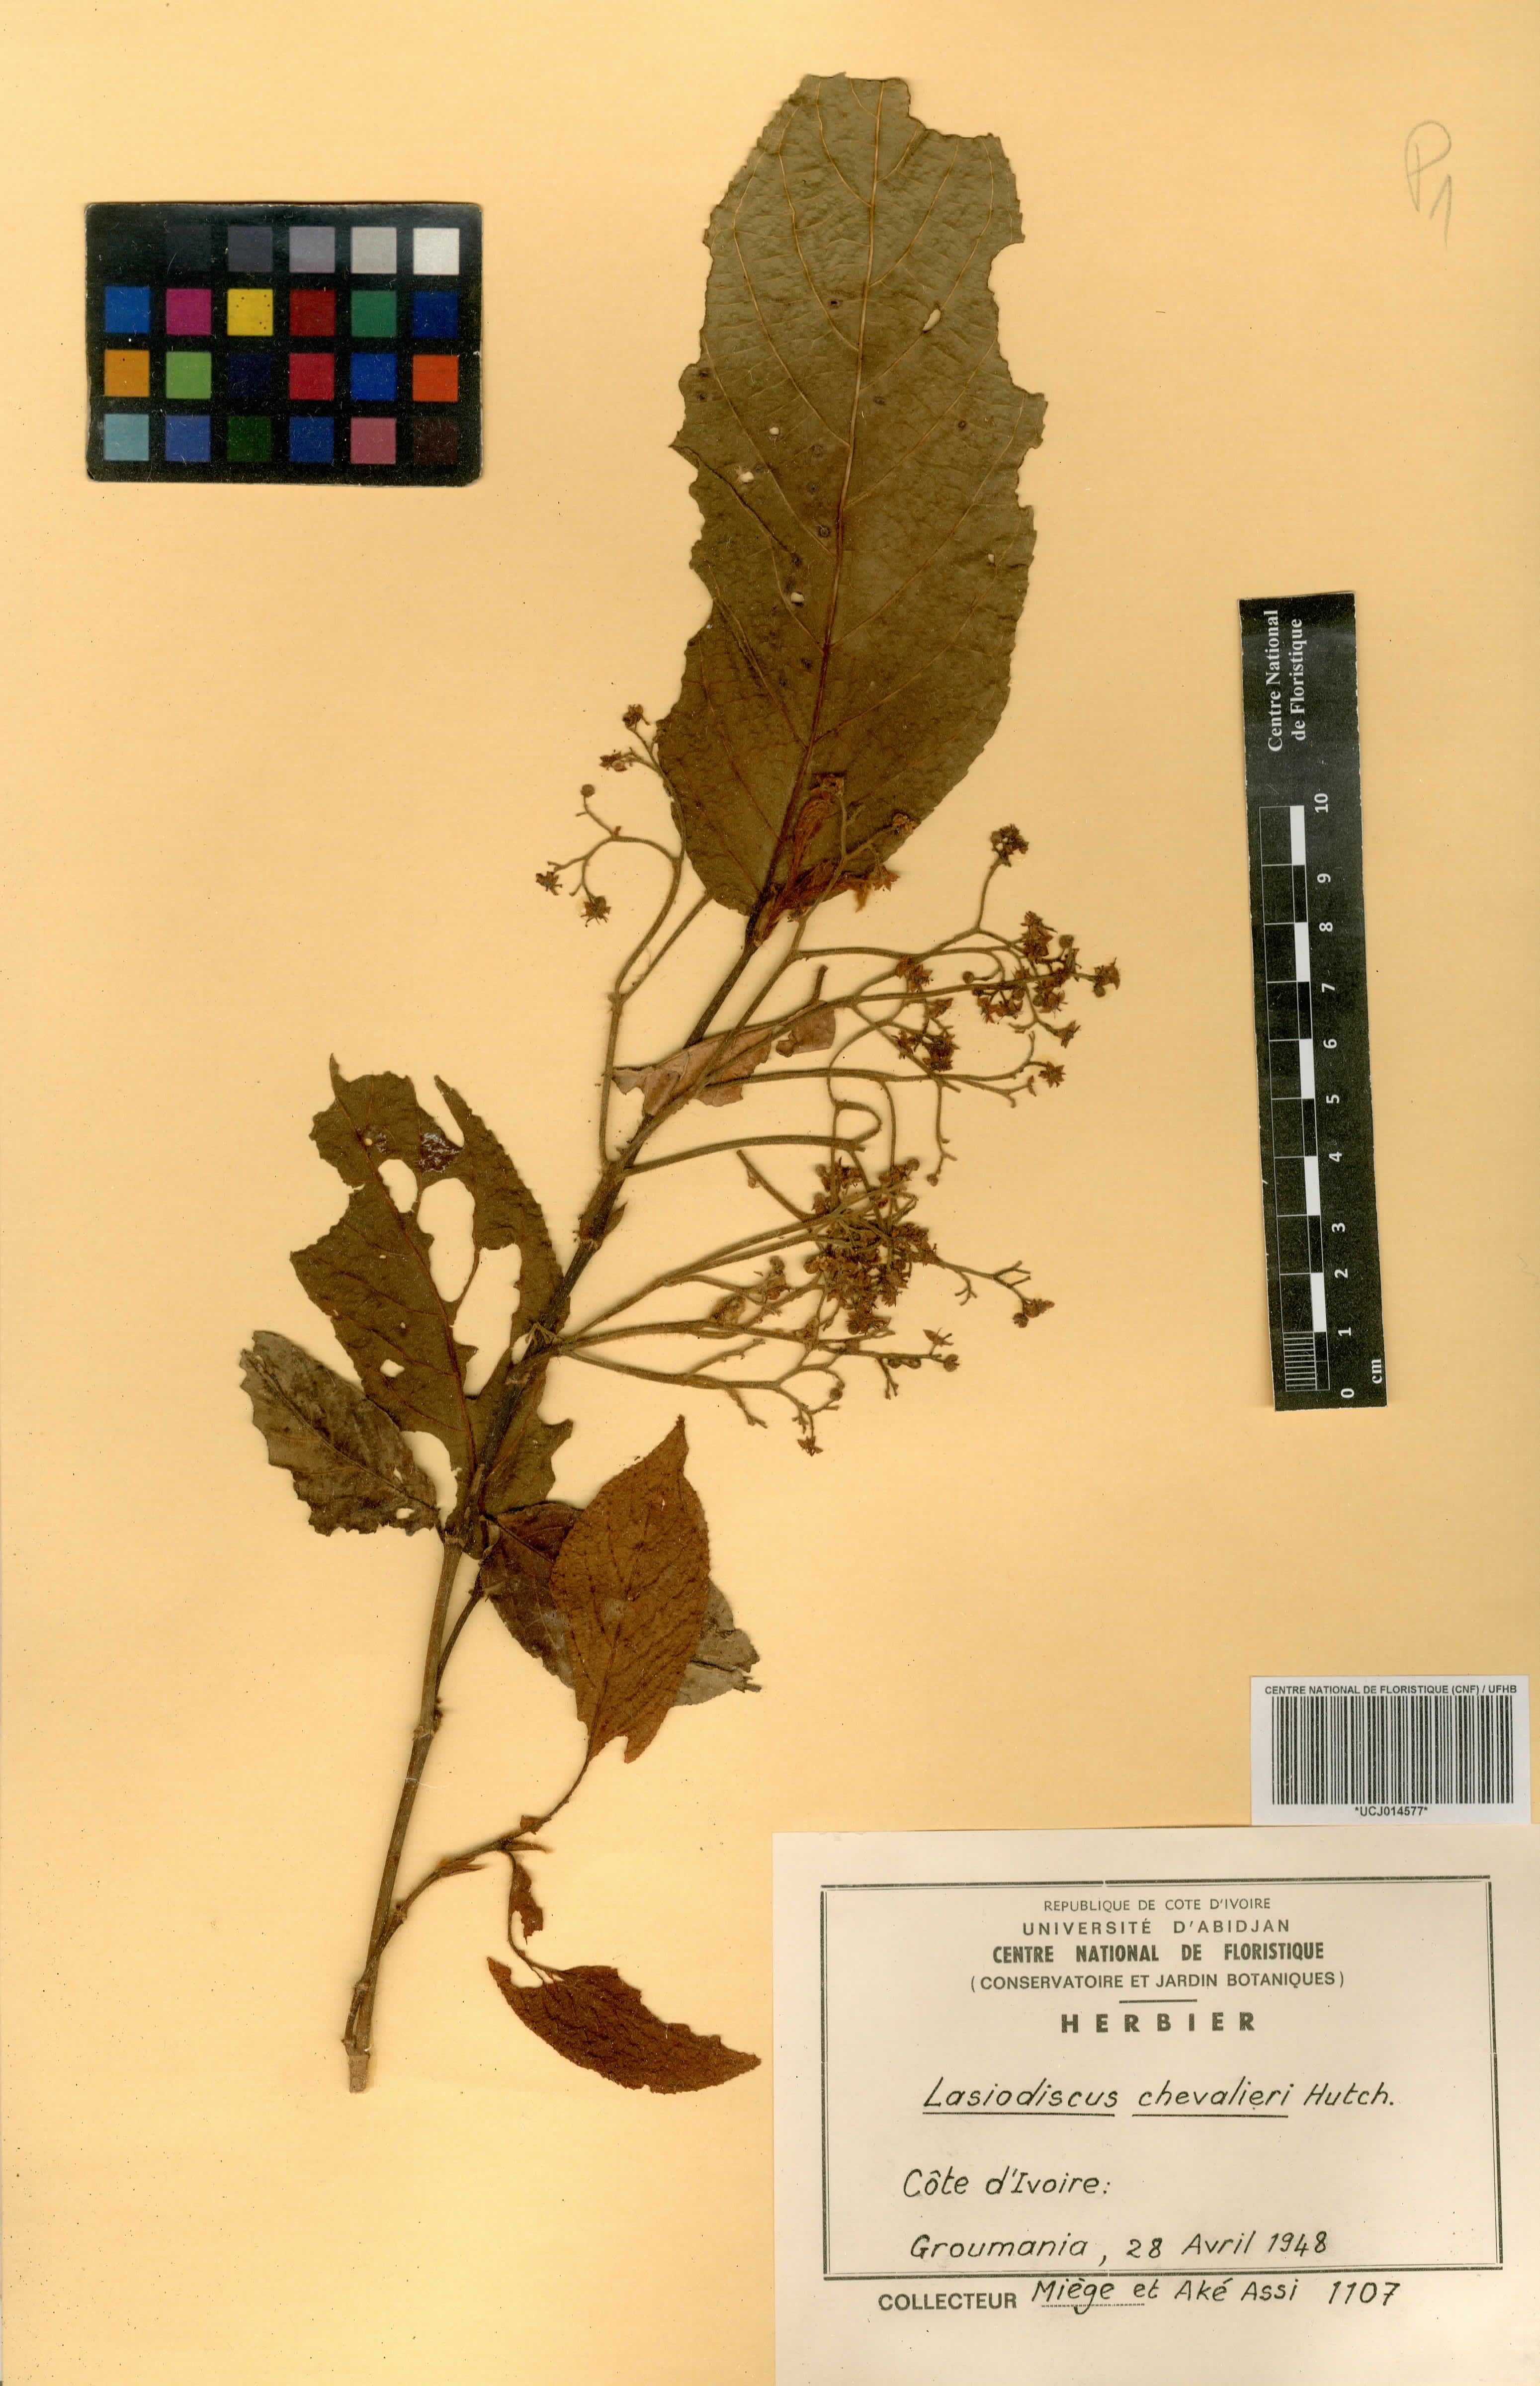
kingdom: Plantae
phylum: Tracheophyta
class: Magnoliopsida
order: Rosales
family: Rhamnaceae
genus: Lasiodiscus
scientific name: Lasiodiscus chevalieri
